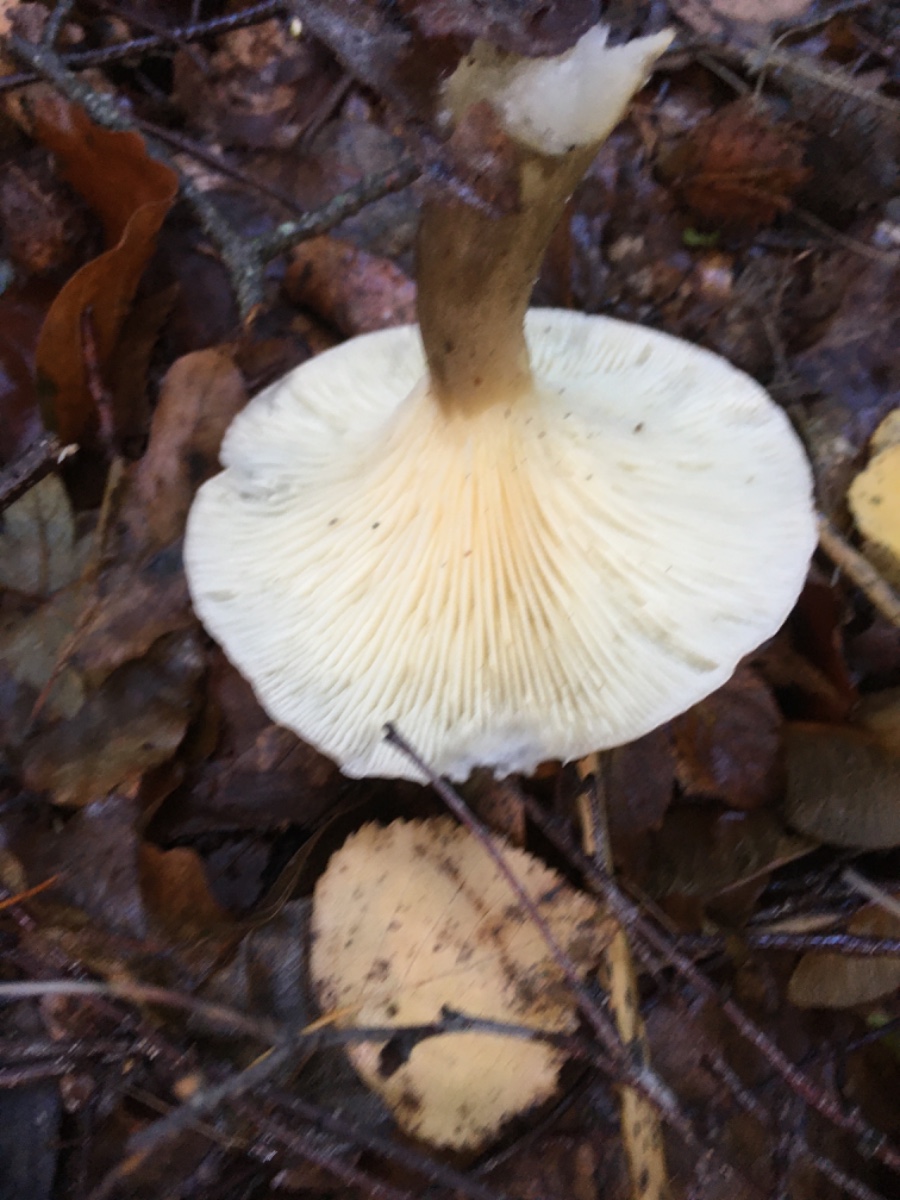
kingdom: Fungi
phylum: Basidiomycota
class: Agaricomycetes
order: Agaricales
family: Hygrophoraceae
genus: Ampulloclitocybe
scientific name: Ampulloclitocybe clavipes
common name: køllefod
